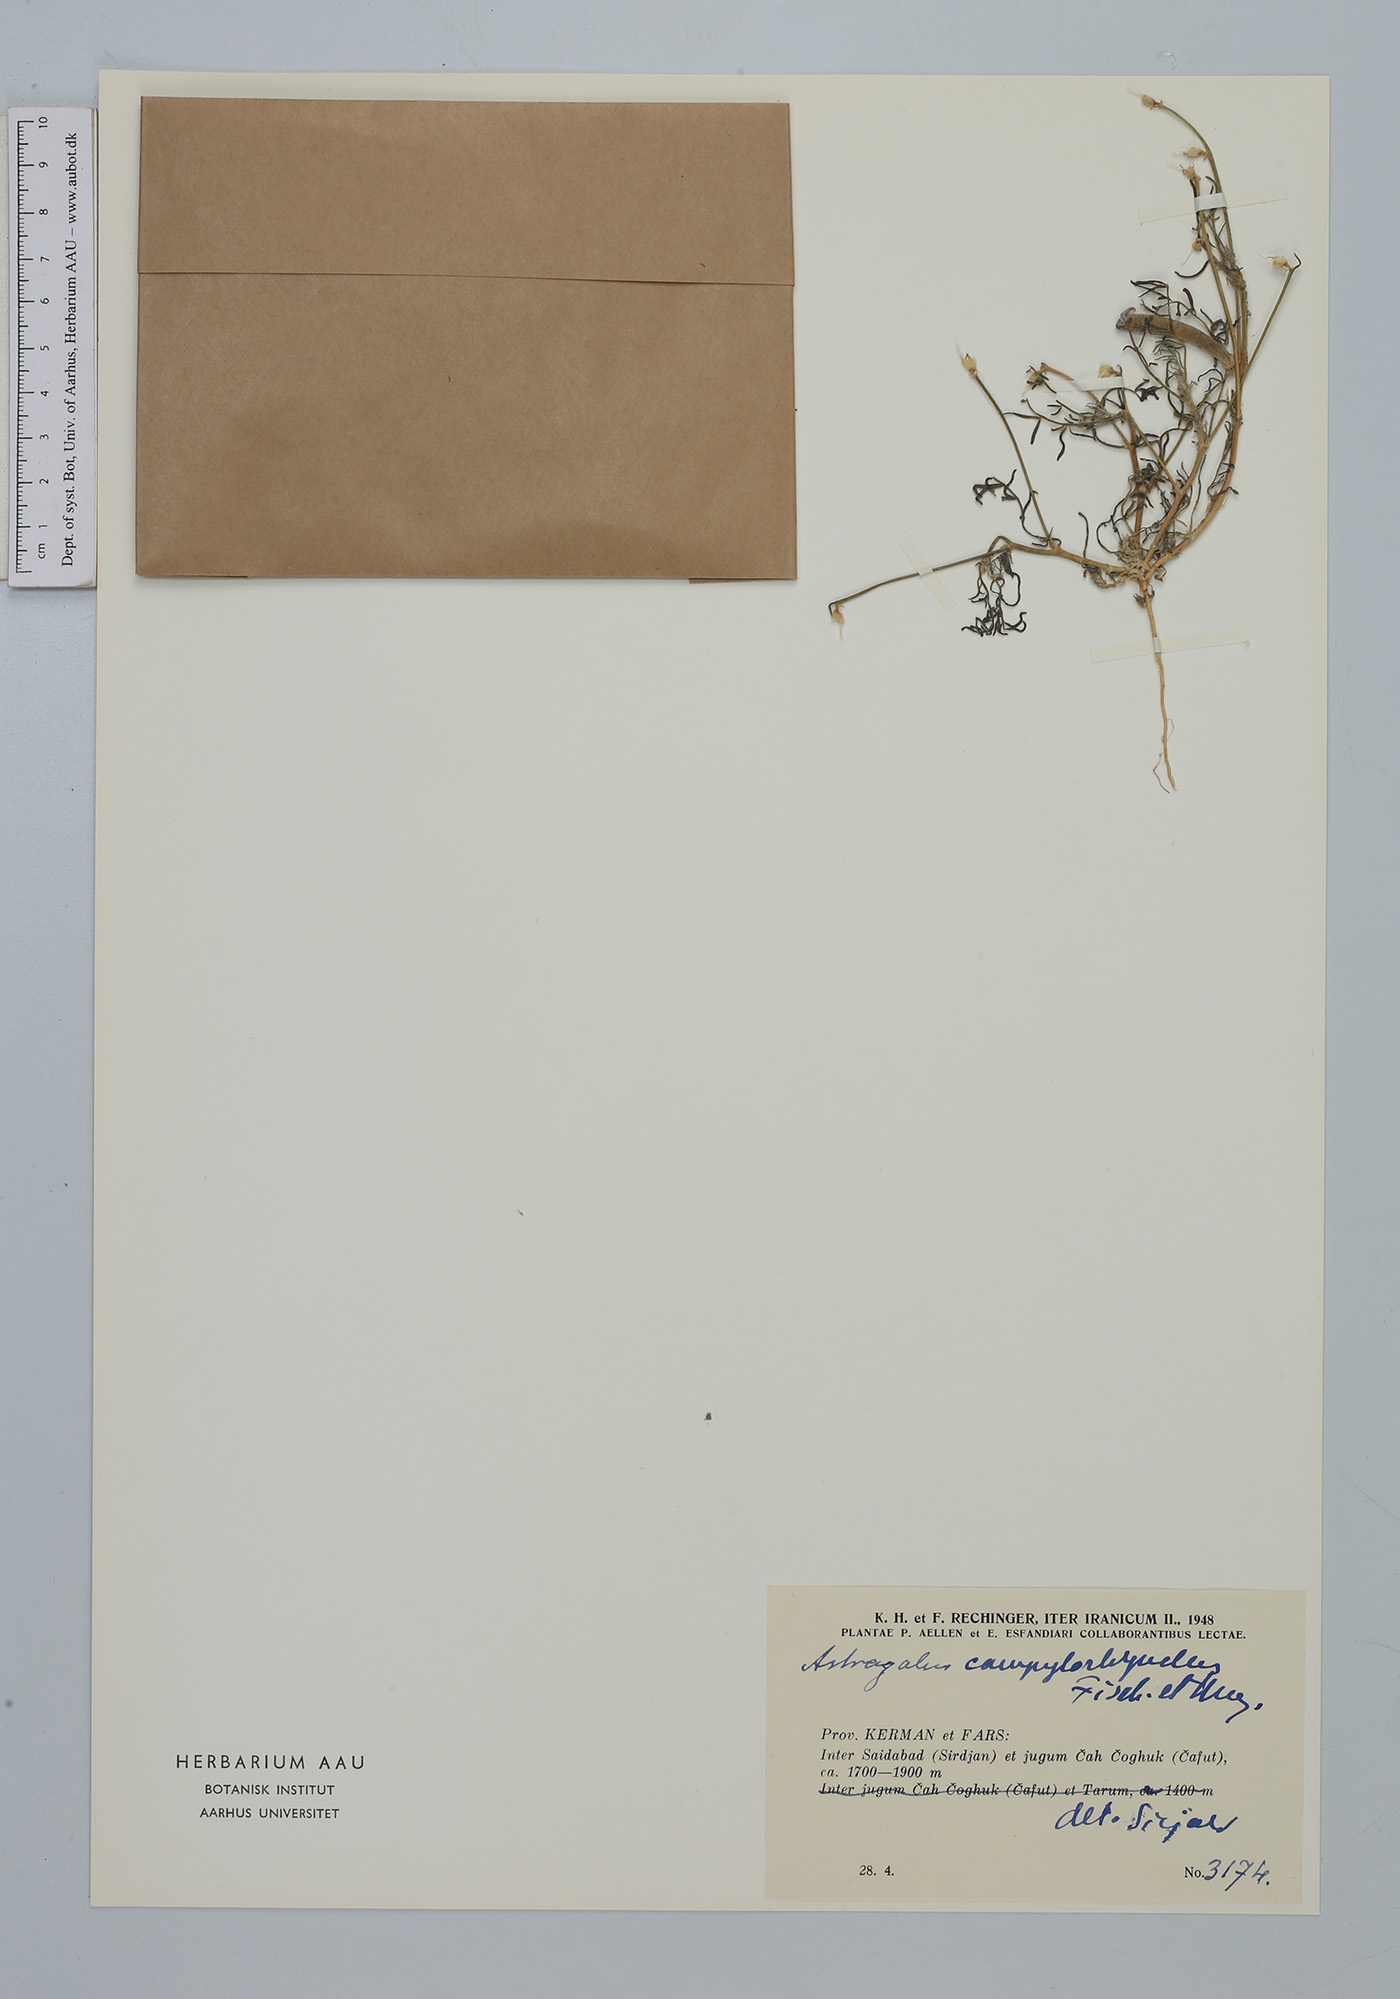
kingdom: Plantae
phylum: Tracheophyta
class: Magnoliopsida
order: Fabales
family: Fabaceae
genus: Astragalus
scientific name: Astragalus campylorrhynchus
